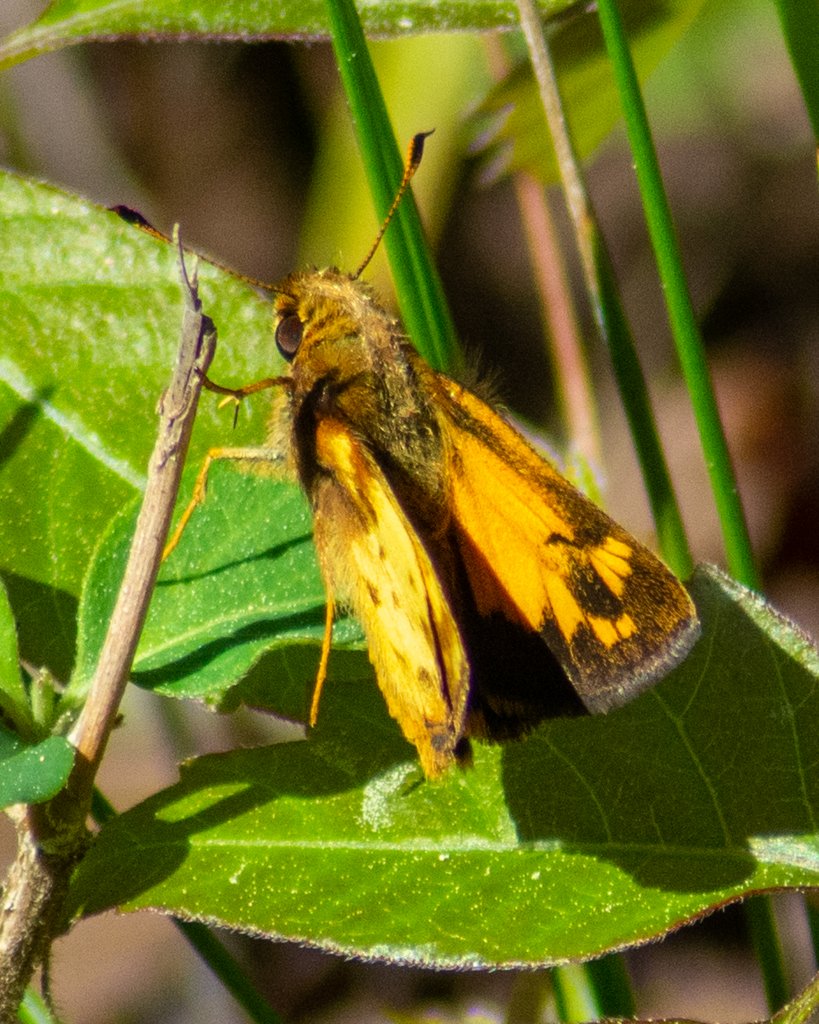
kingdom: Animalia
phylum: Arthropoda
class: Insecta
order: Lepidoptera
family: Hesperiidae
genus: Lon
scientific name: Lon zabulon
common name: Zabulon Skipper
